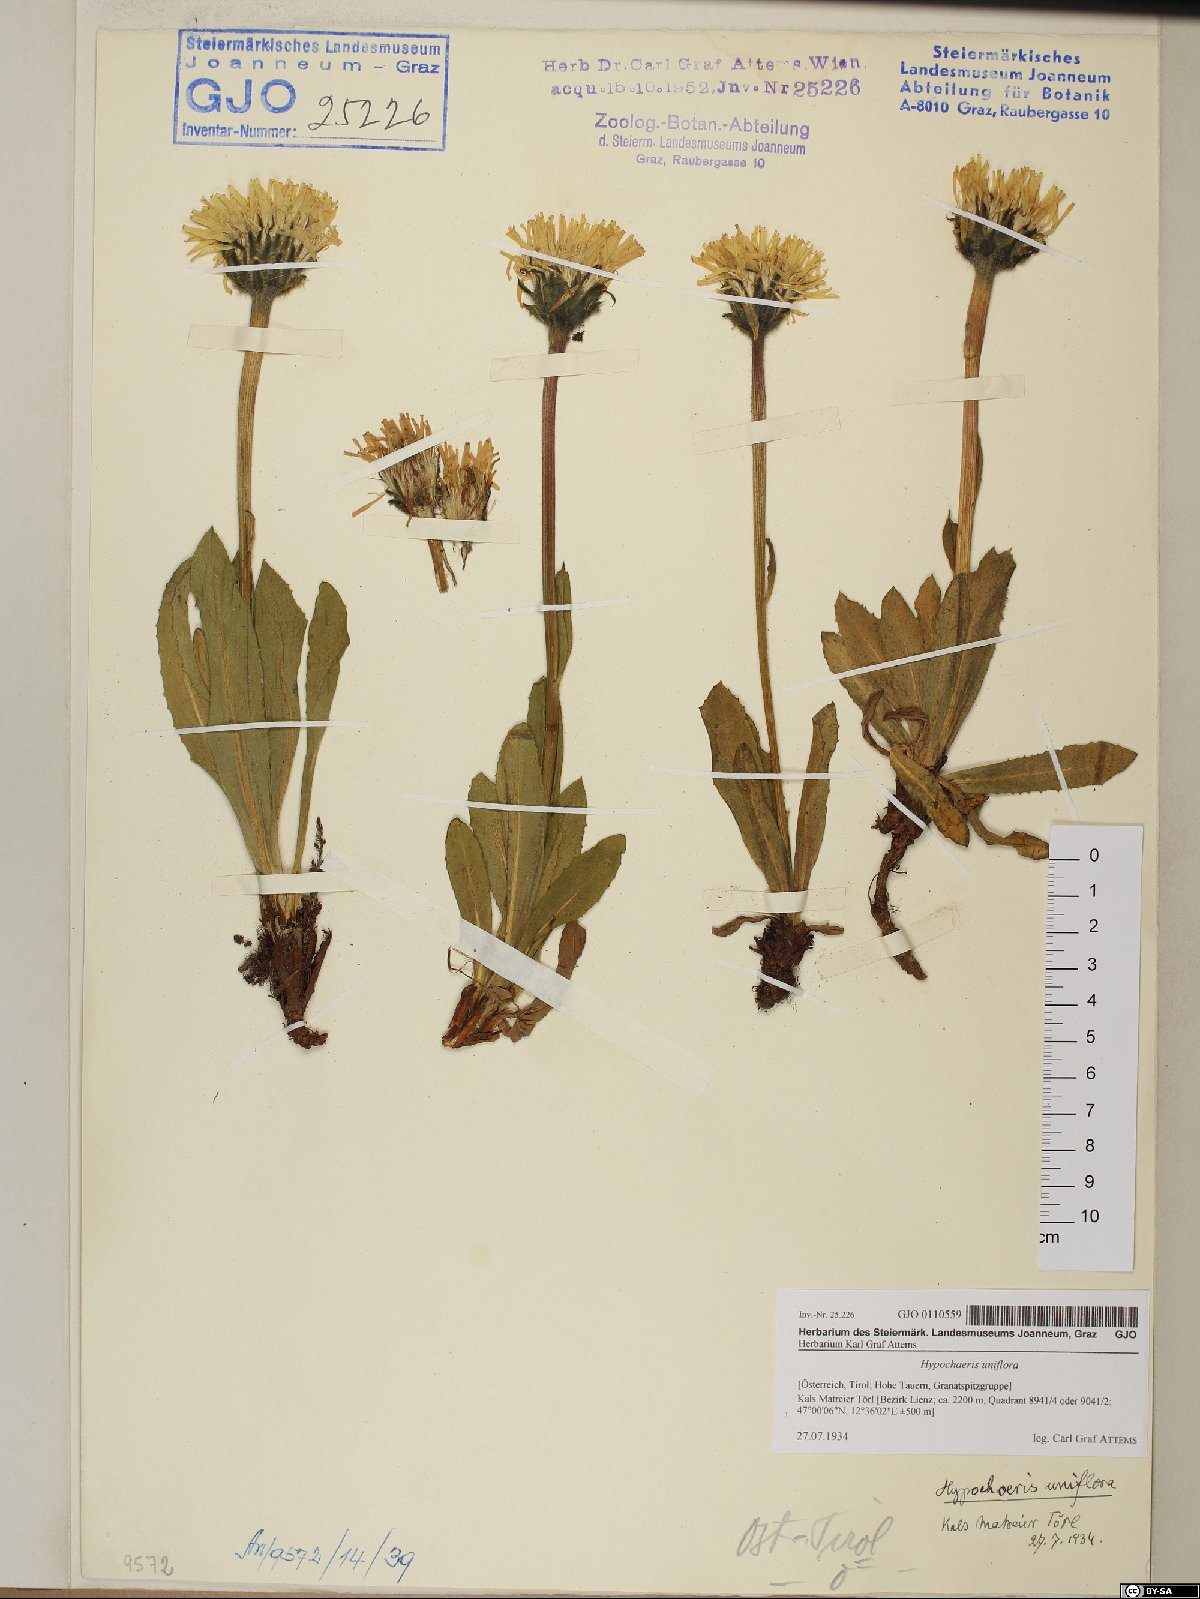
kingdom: Plantae
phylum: Tracheophyta
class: Magnoliopsida
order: Asterales
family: Asteraceae
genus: Trommsdorffia
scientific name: Trommsdorffia uniflora
